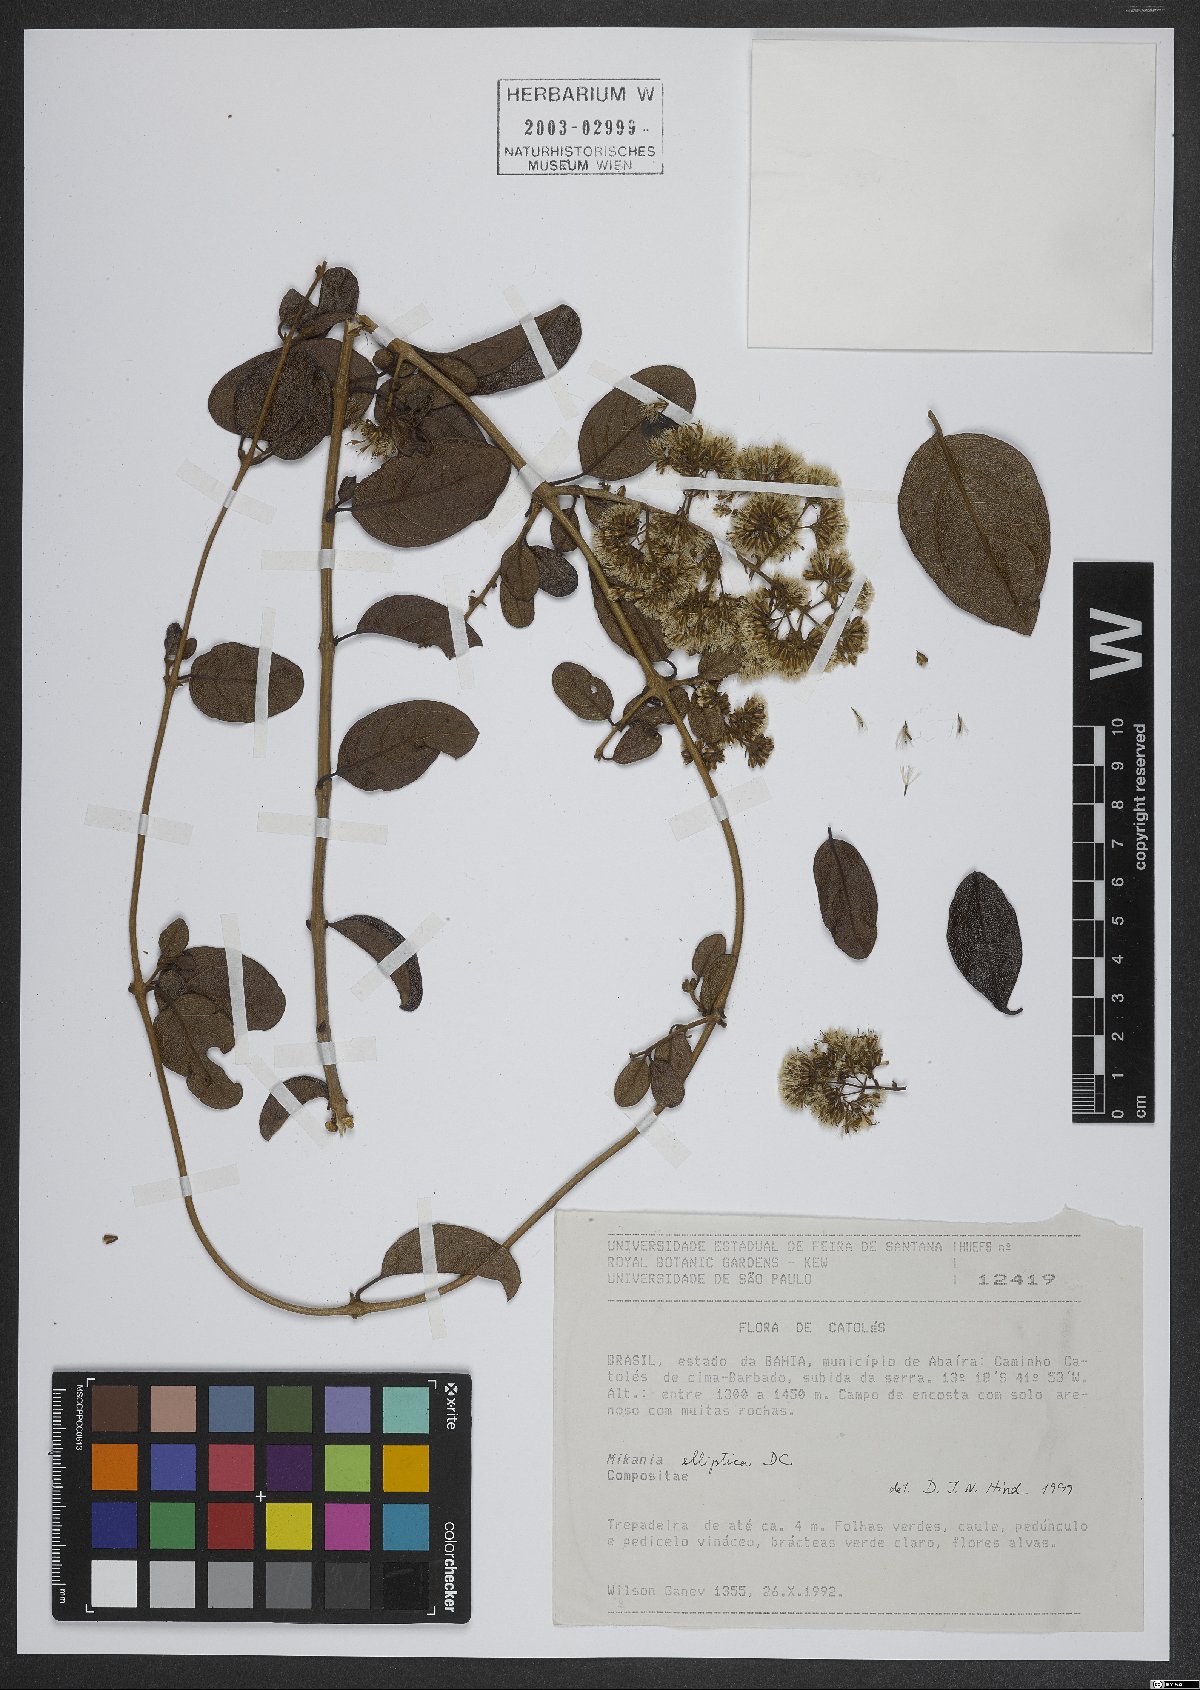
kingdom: Plantae
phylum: Tracheophyta
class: Magnoliopsida
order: Asterales
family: Asteraceae
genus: Mikania
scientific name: Mikania elliptica
